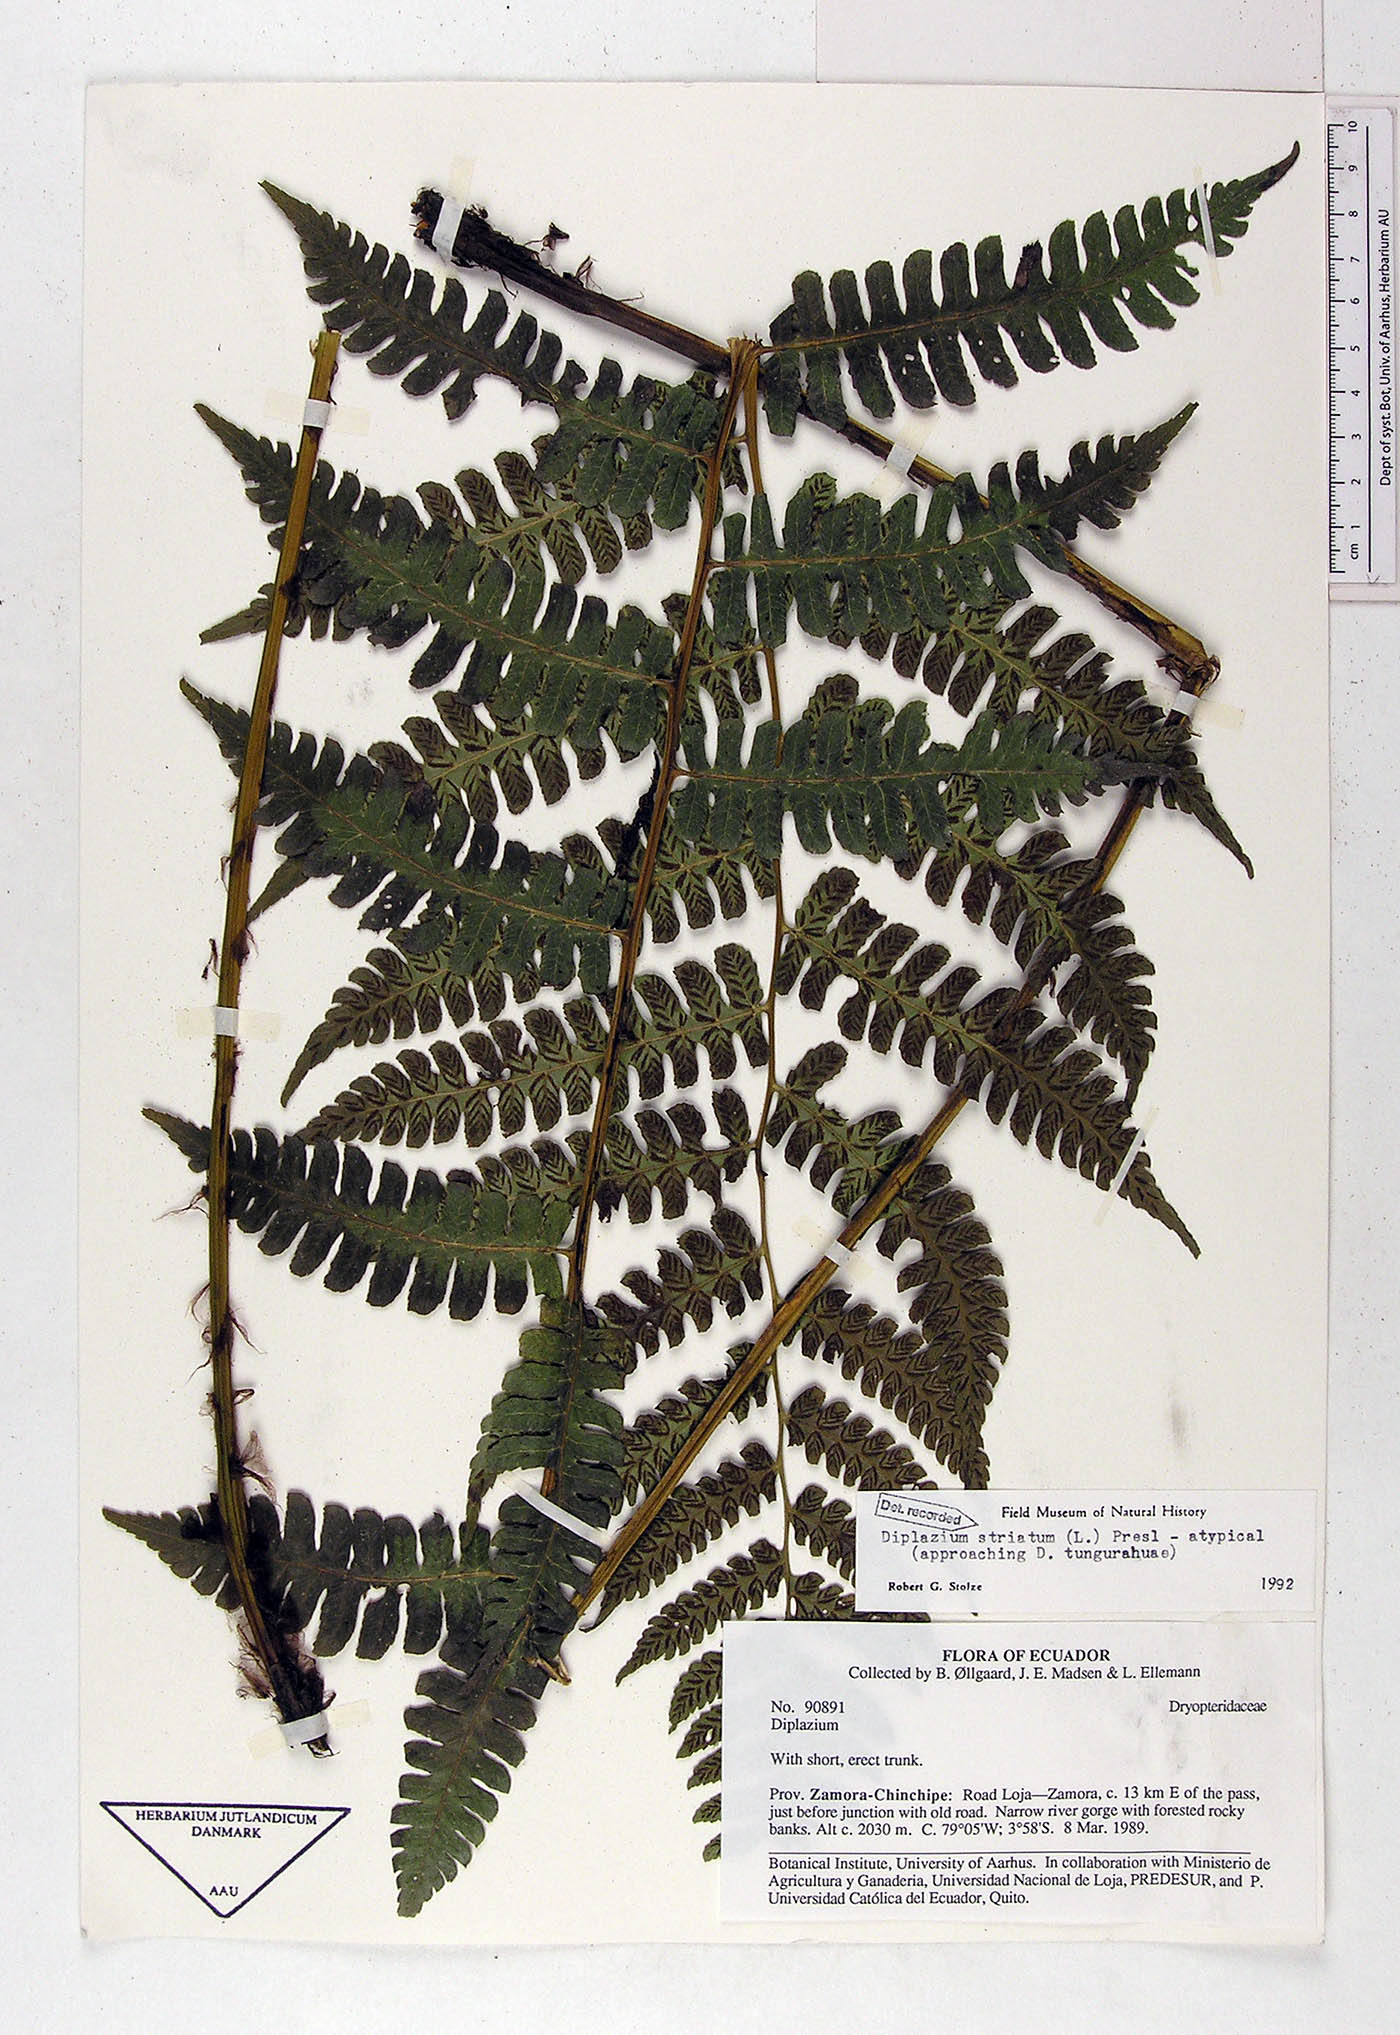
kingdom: Plantae
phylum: Tracheophyta
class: Polypodiopsida
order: Polypodiales
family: Athyriaceae
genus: Diplazium
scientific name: Diplazium striatum
